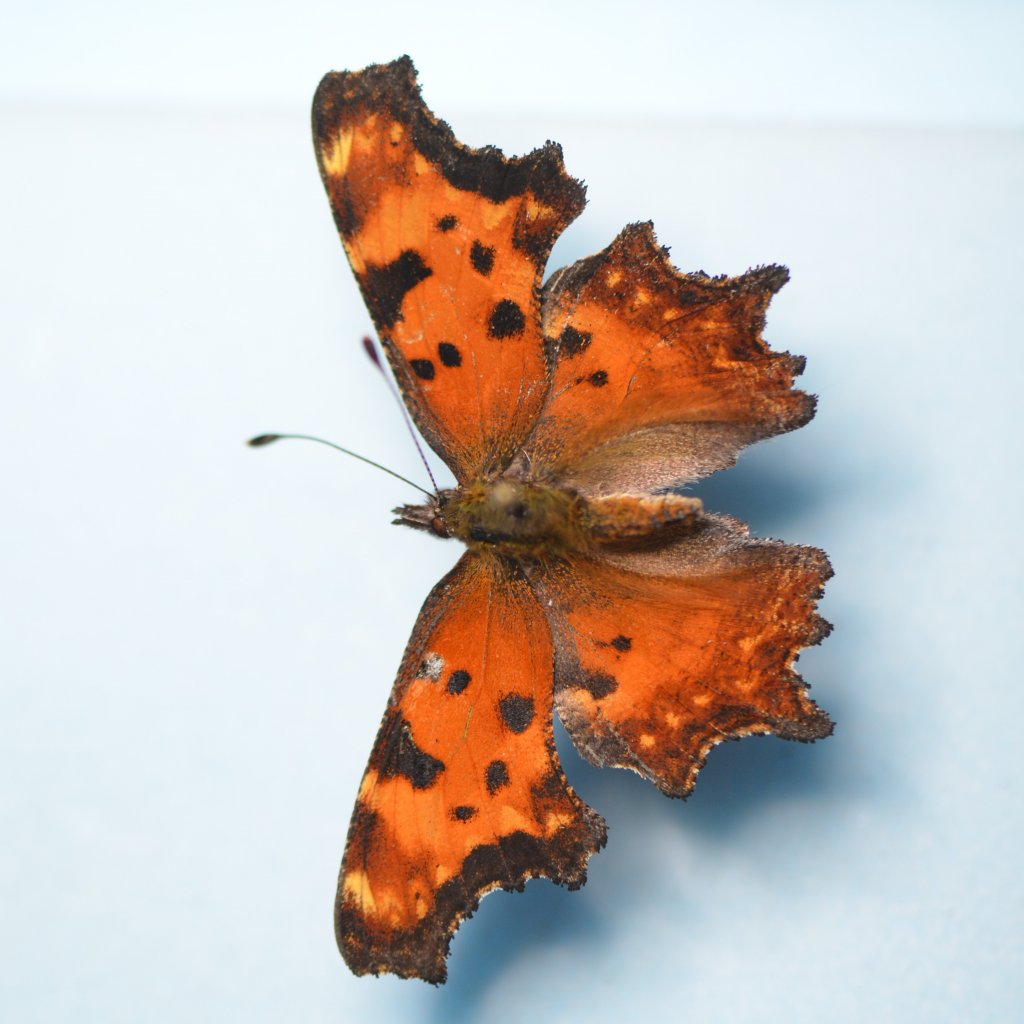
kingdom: Animalia
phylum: Arthropoda
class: Insecta
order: Lepidoptera
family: Nymphalidae
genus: Polygonia
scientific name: Polygonia gracilis
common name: Hoary Comma
